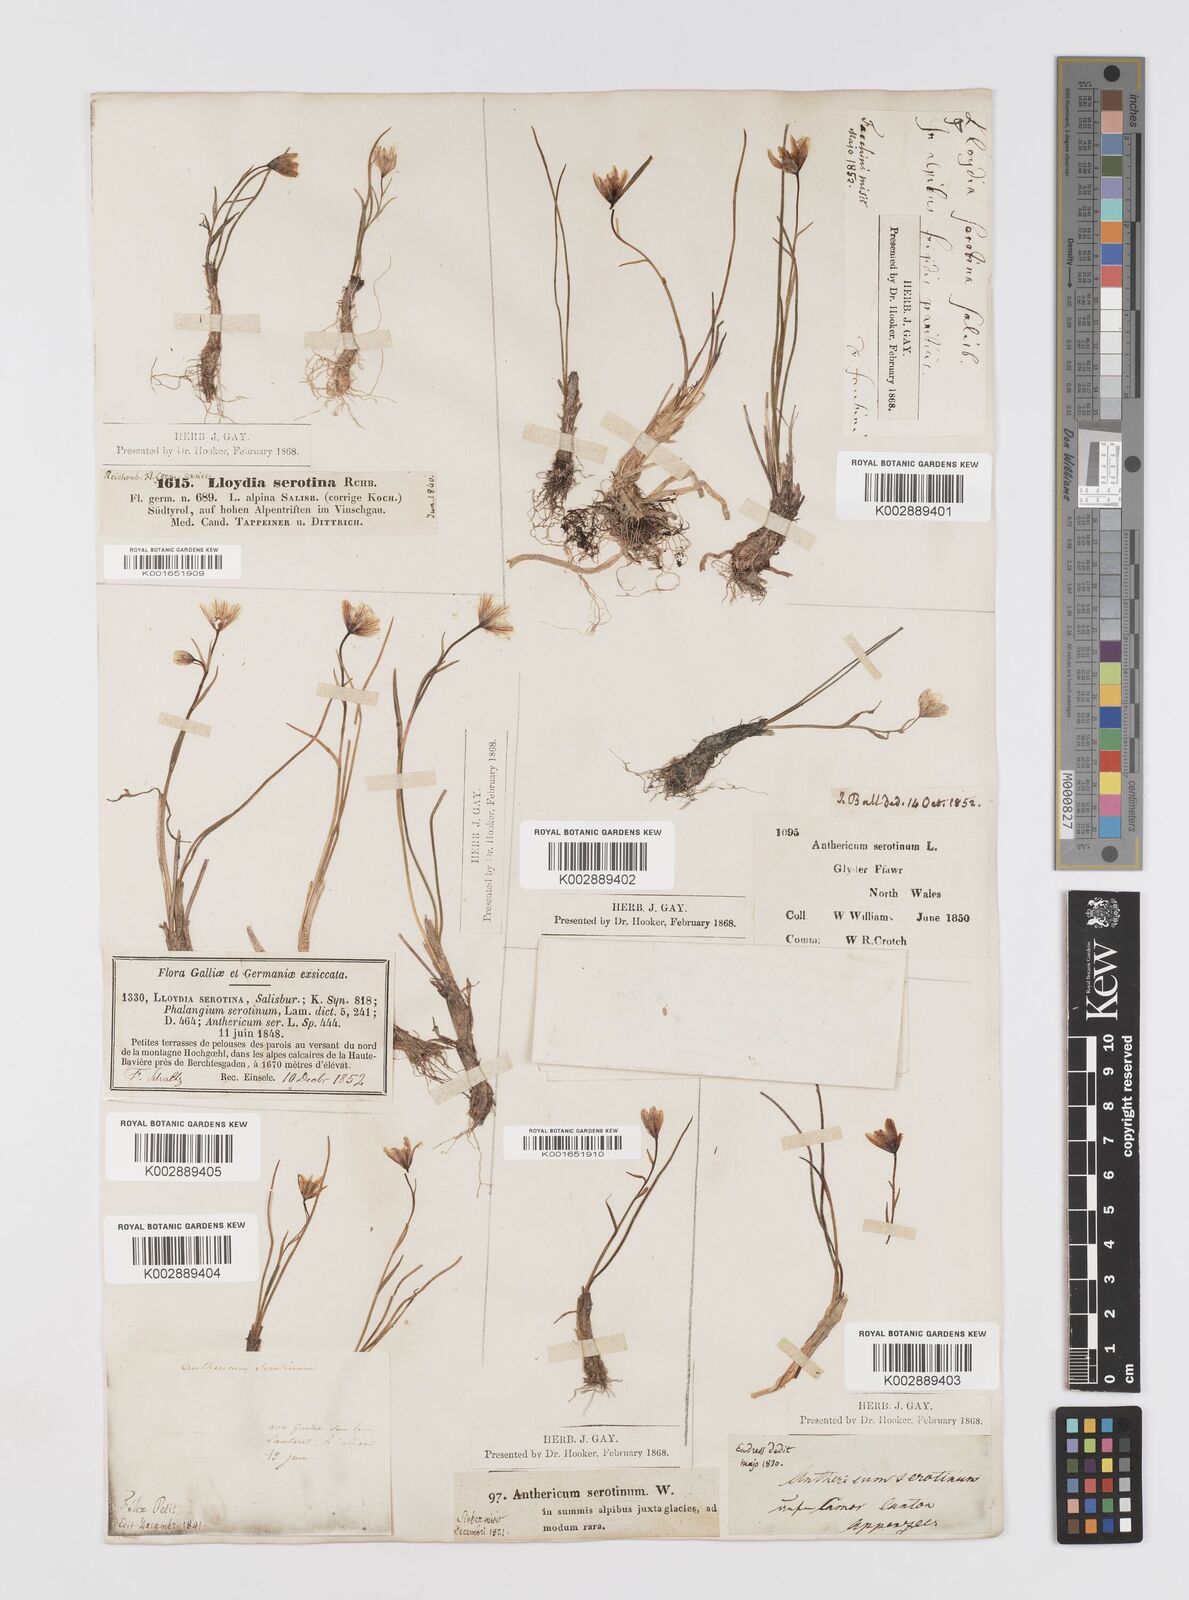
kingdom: Plantae
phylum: Tracheophyta
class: Liliopsida
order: Liliales
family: Liliaceae
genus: Gagea
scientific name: Gagea
